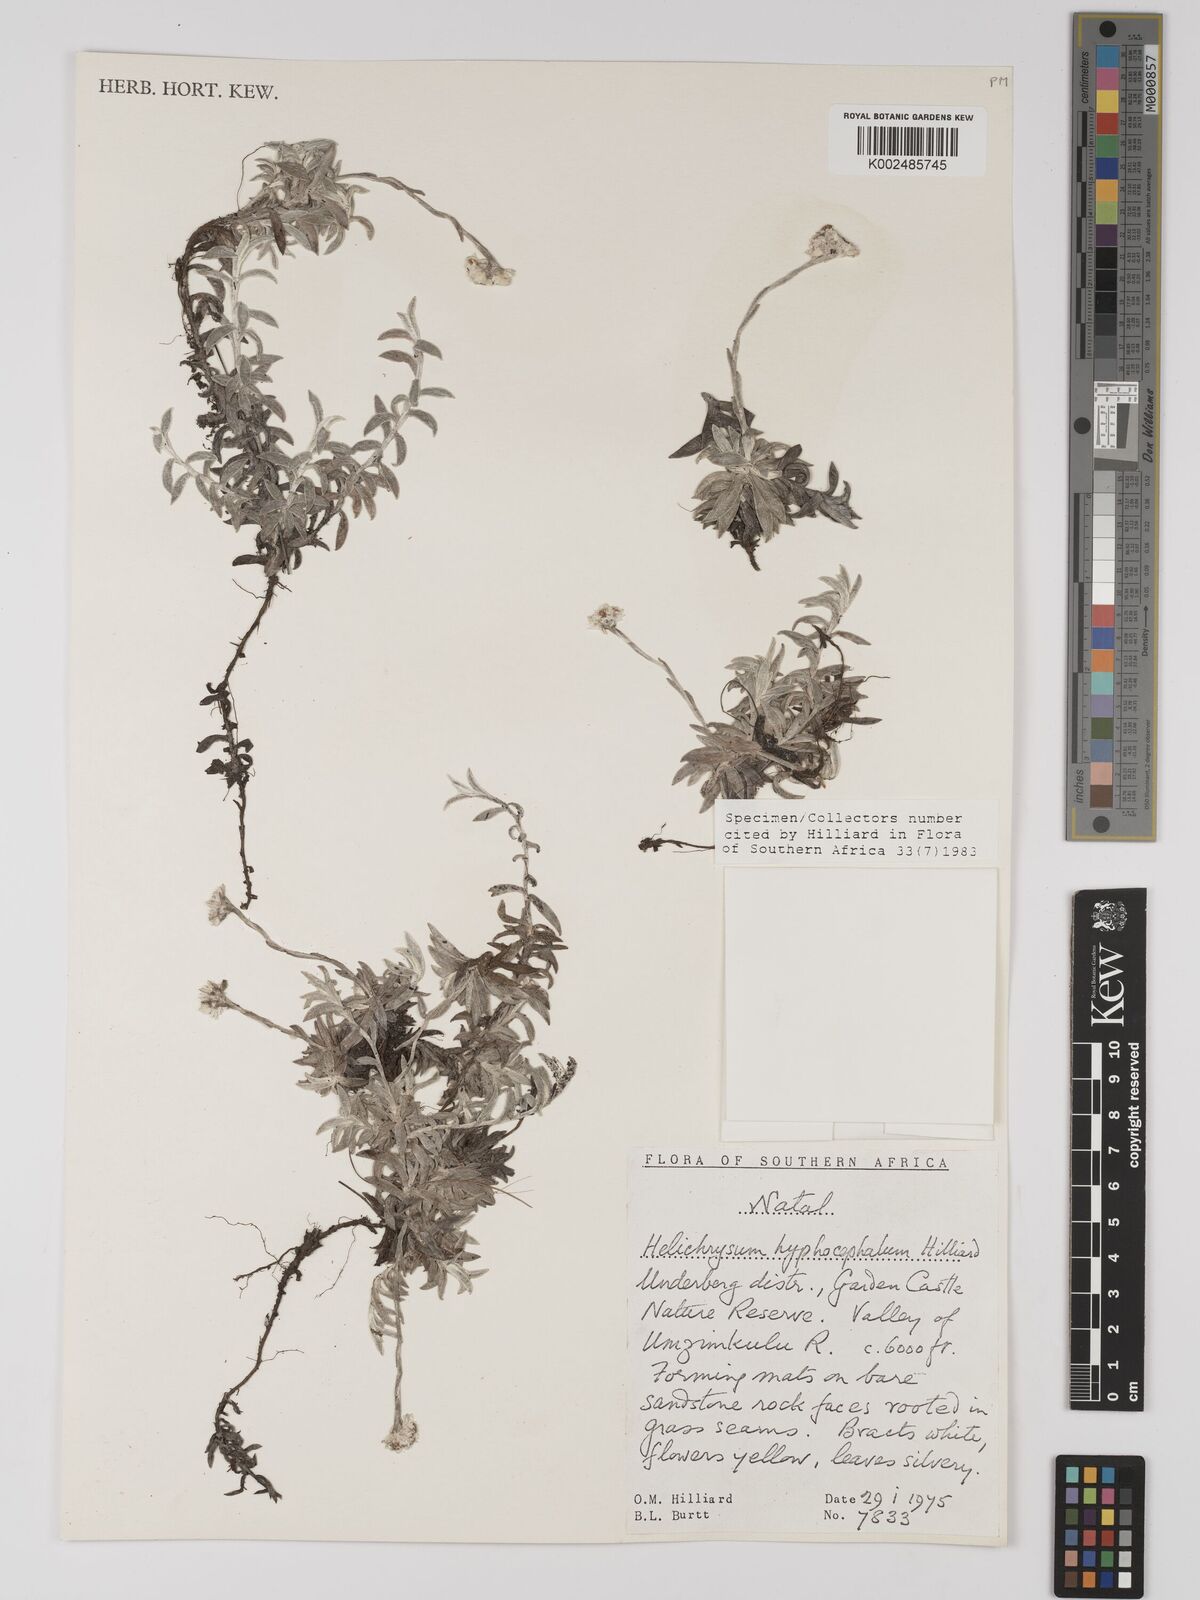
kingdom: Plantae
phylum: Tracheophyta
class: Magnoliopsida
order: Asterales
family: Asteraceae
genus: Helichrysum
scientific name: Helichrysum hyphocephalum
